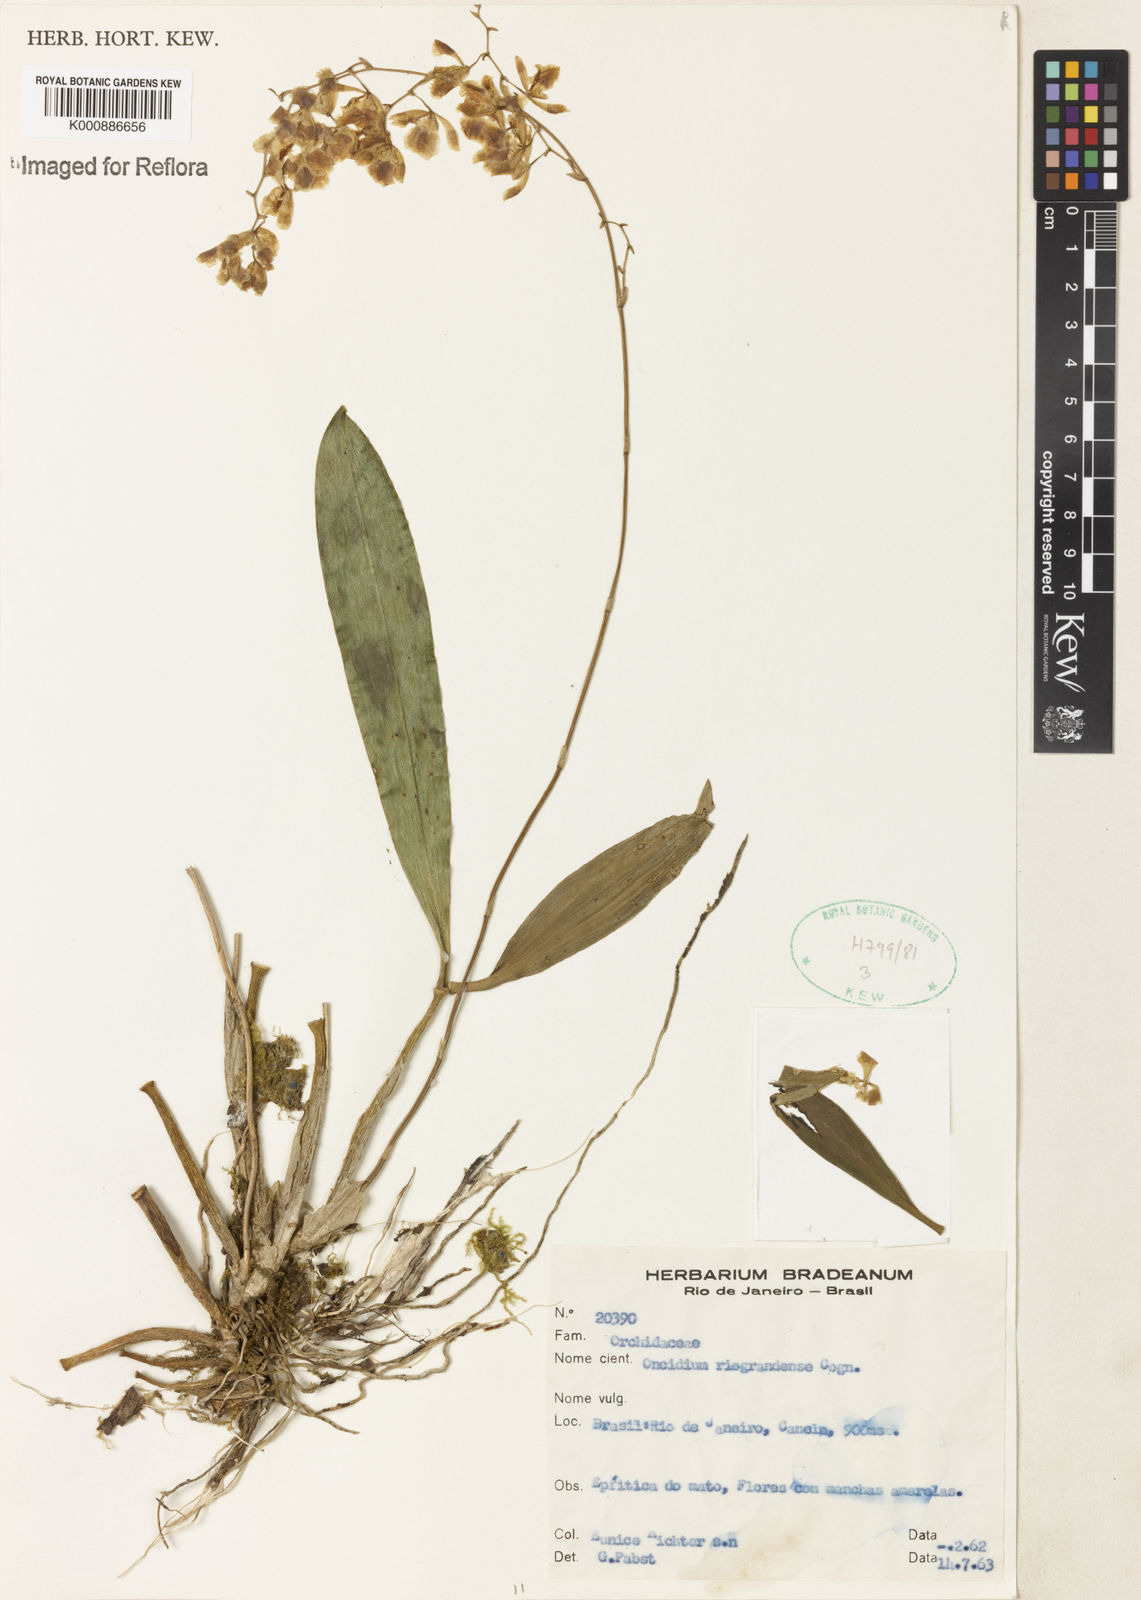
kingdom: Plantae
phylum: Tracheophyta
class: Liliopsida
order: Asparagales
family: Orchidaceae
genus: Gomesa
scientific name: Gomesa riograndensis
